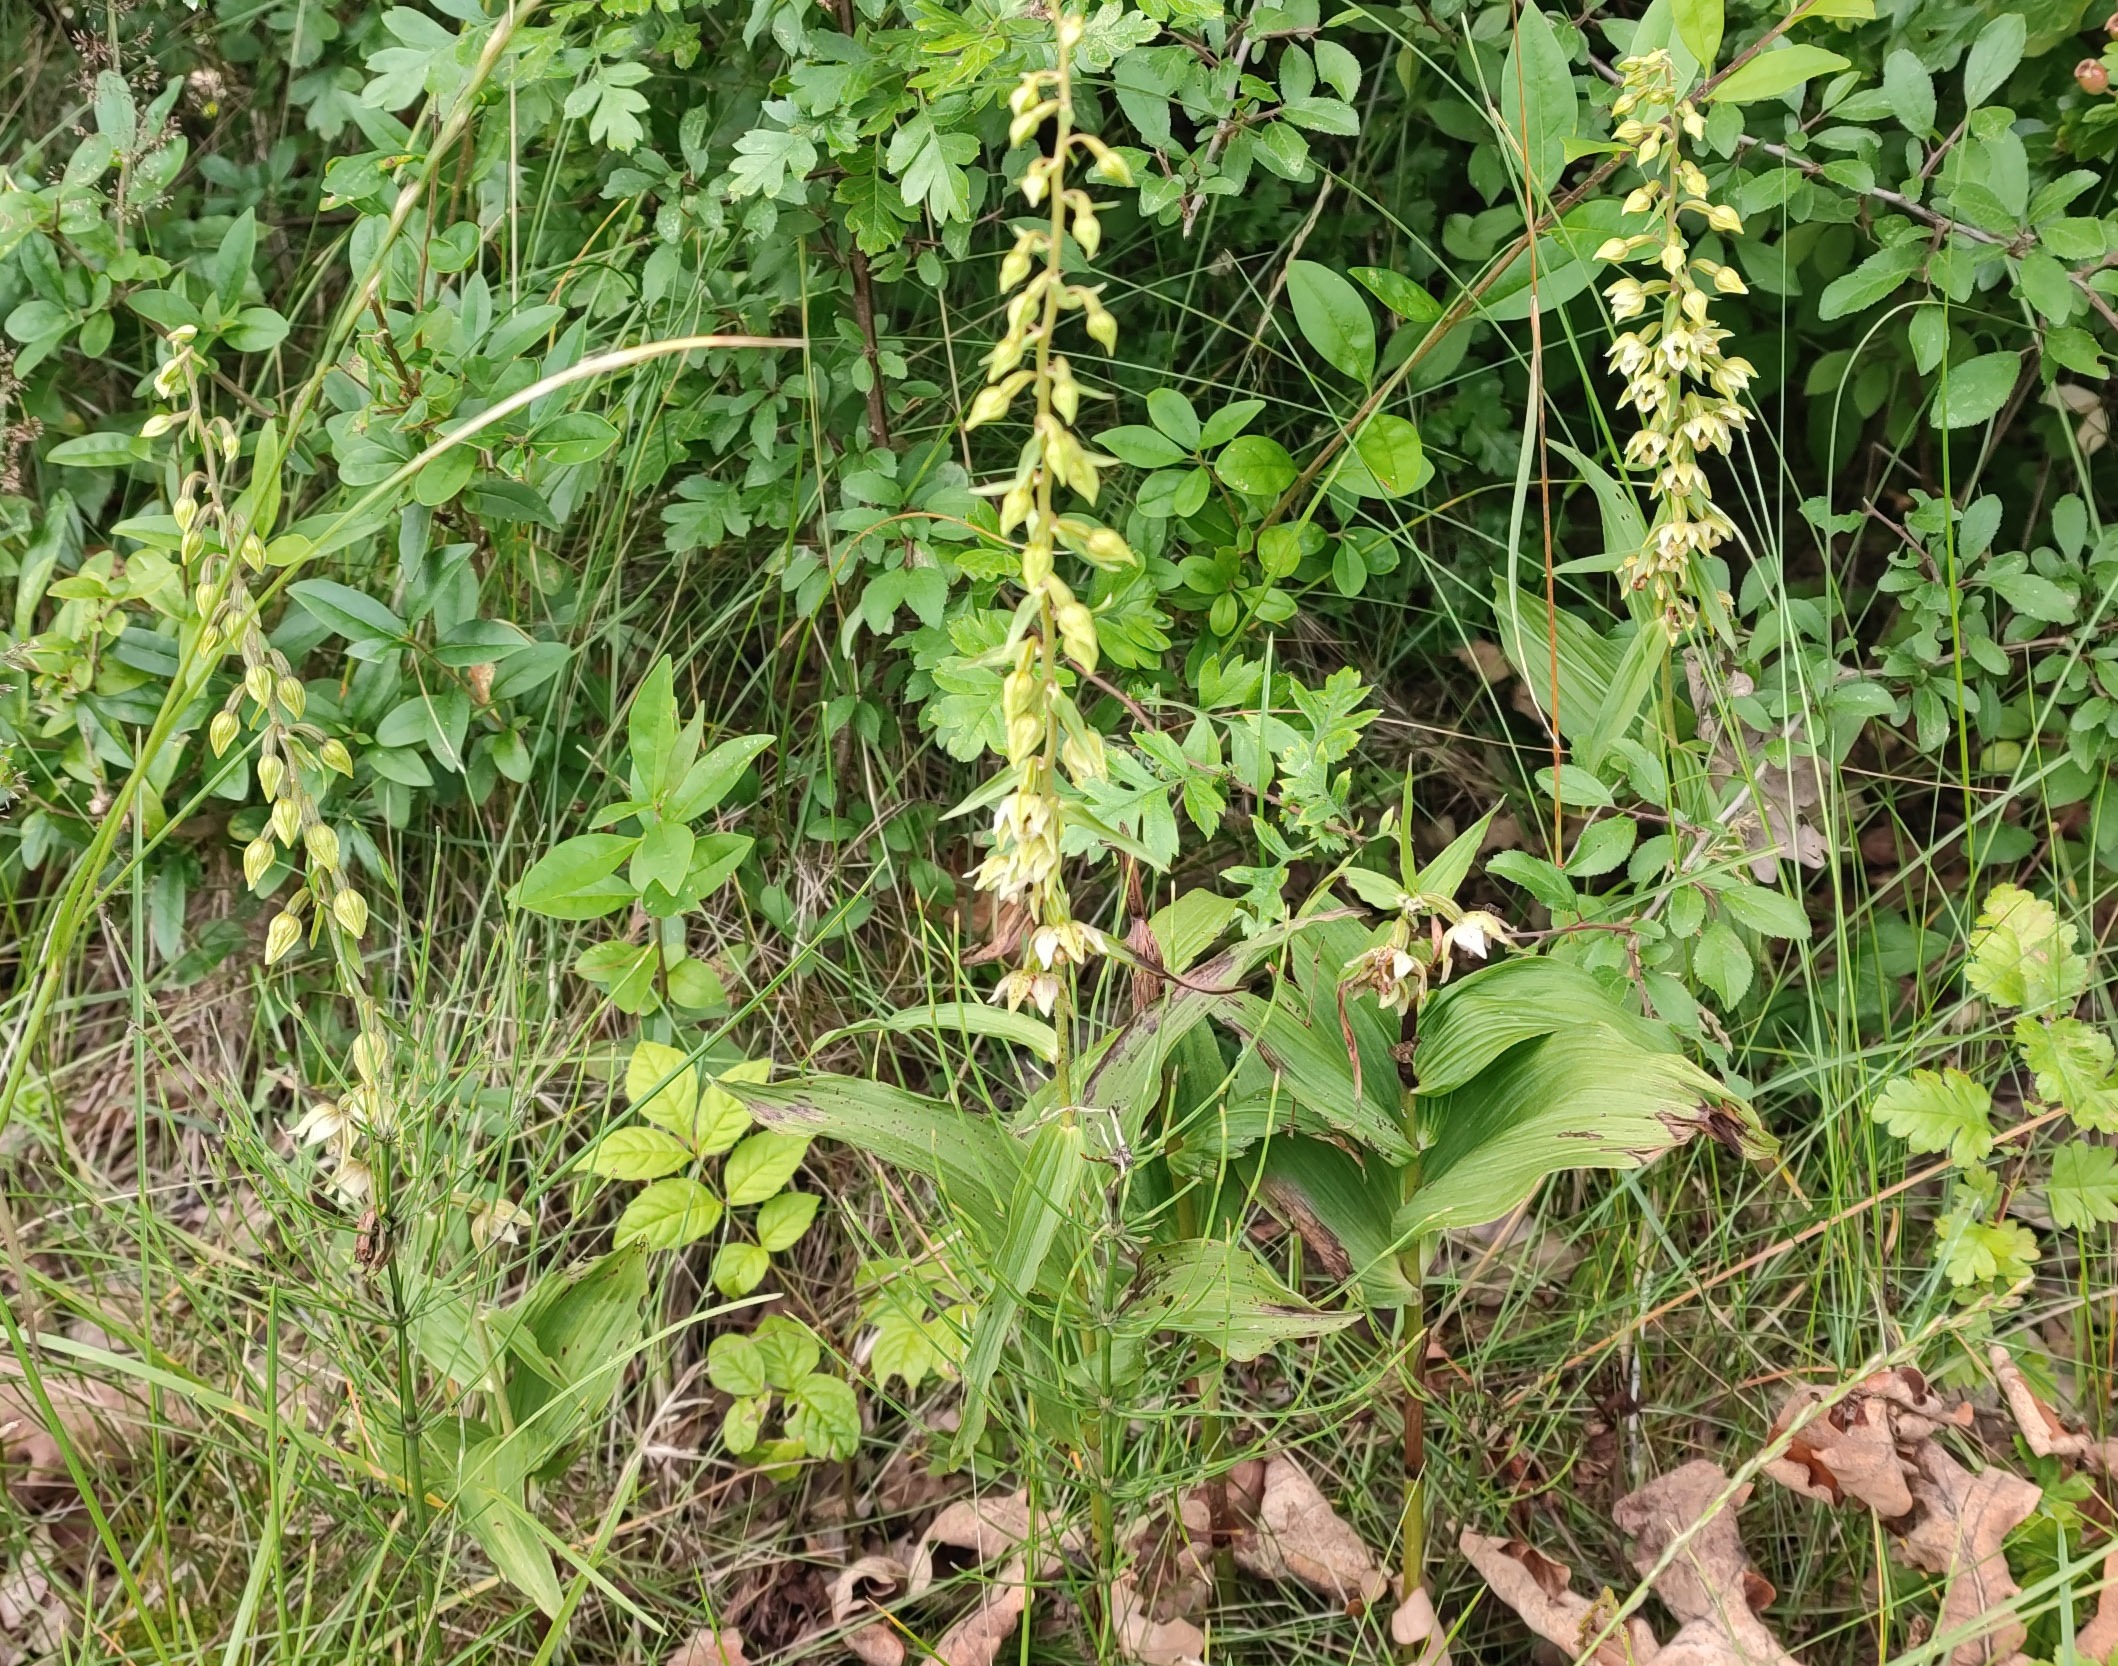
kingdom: Plantae
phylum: Tracheophyta
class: Liliopsida
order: Asparagales
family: Orchidaceae
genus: Epipactis
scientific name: Epipactis helleborine
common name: Skov-hullæbe
